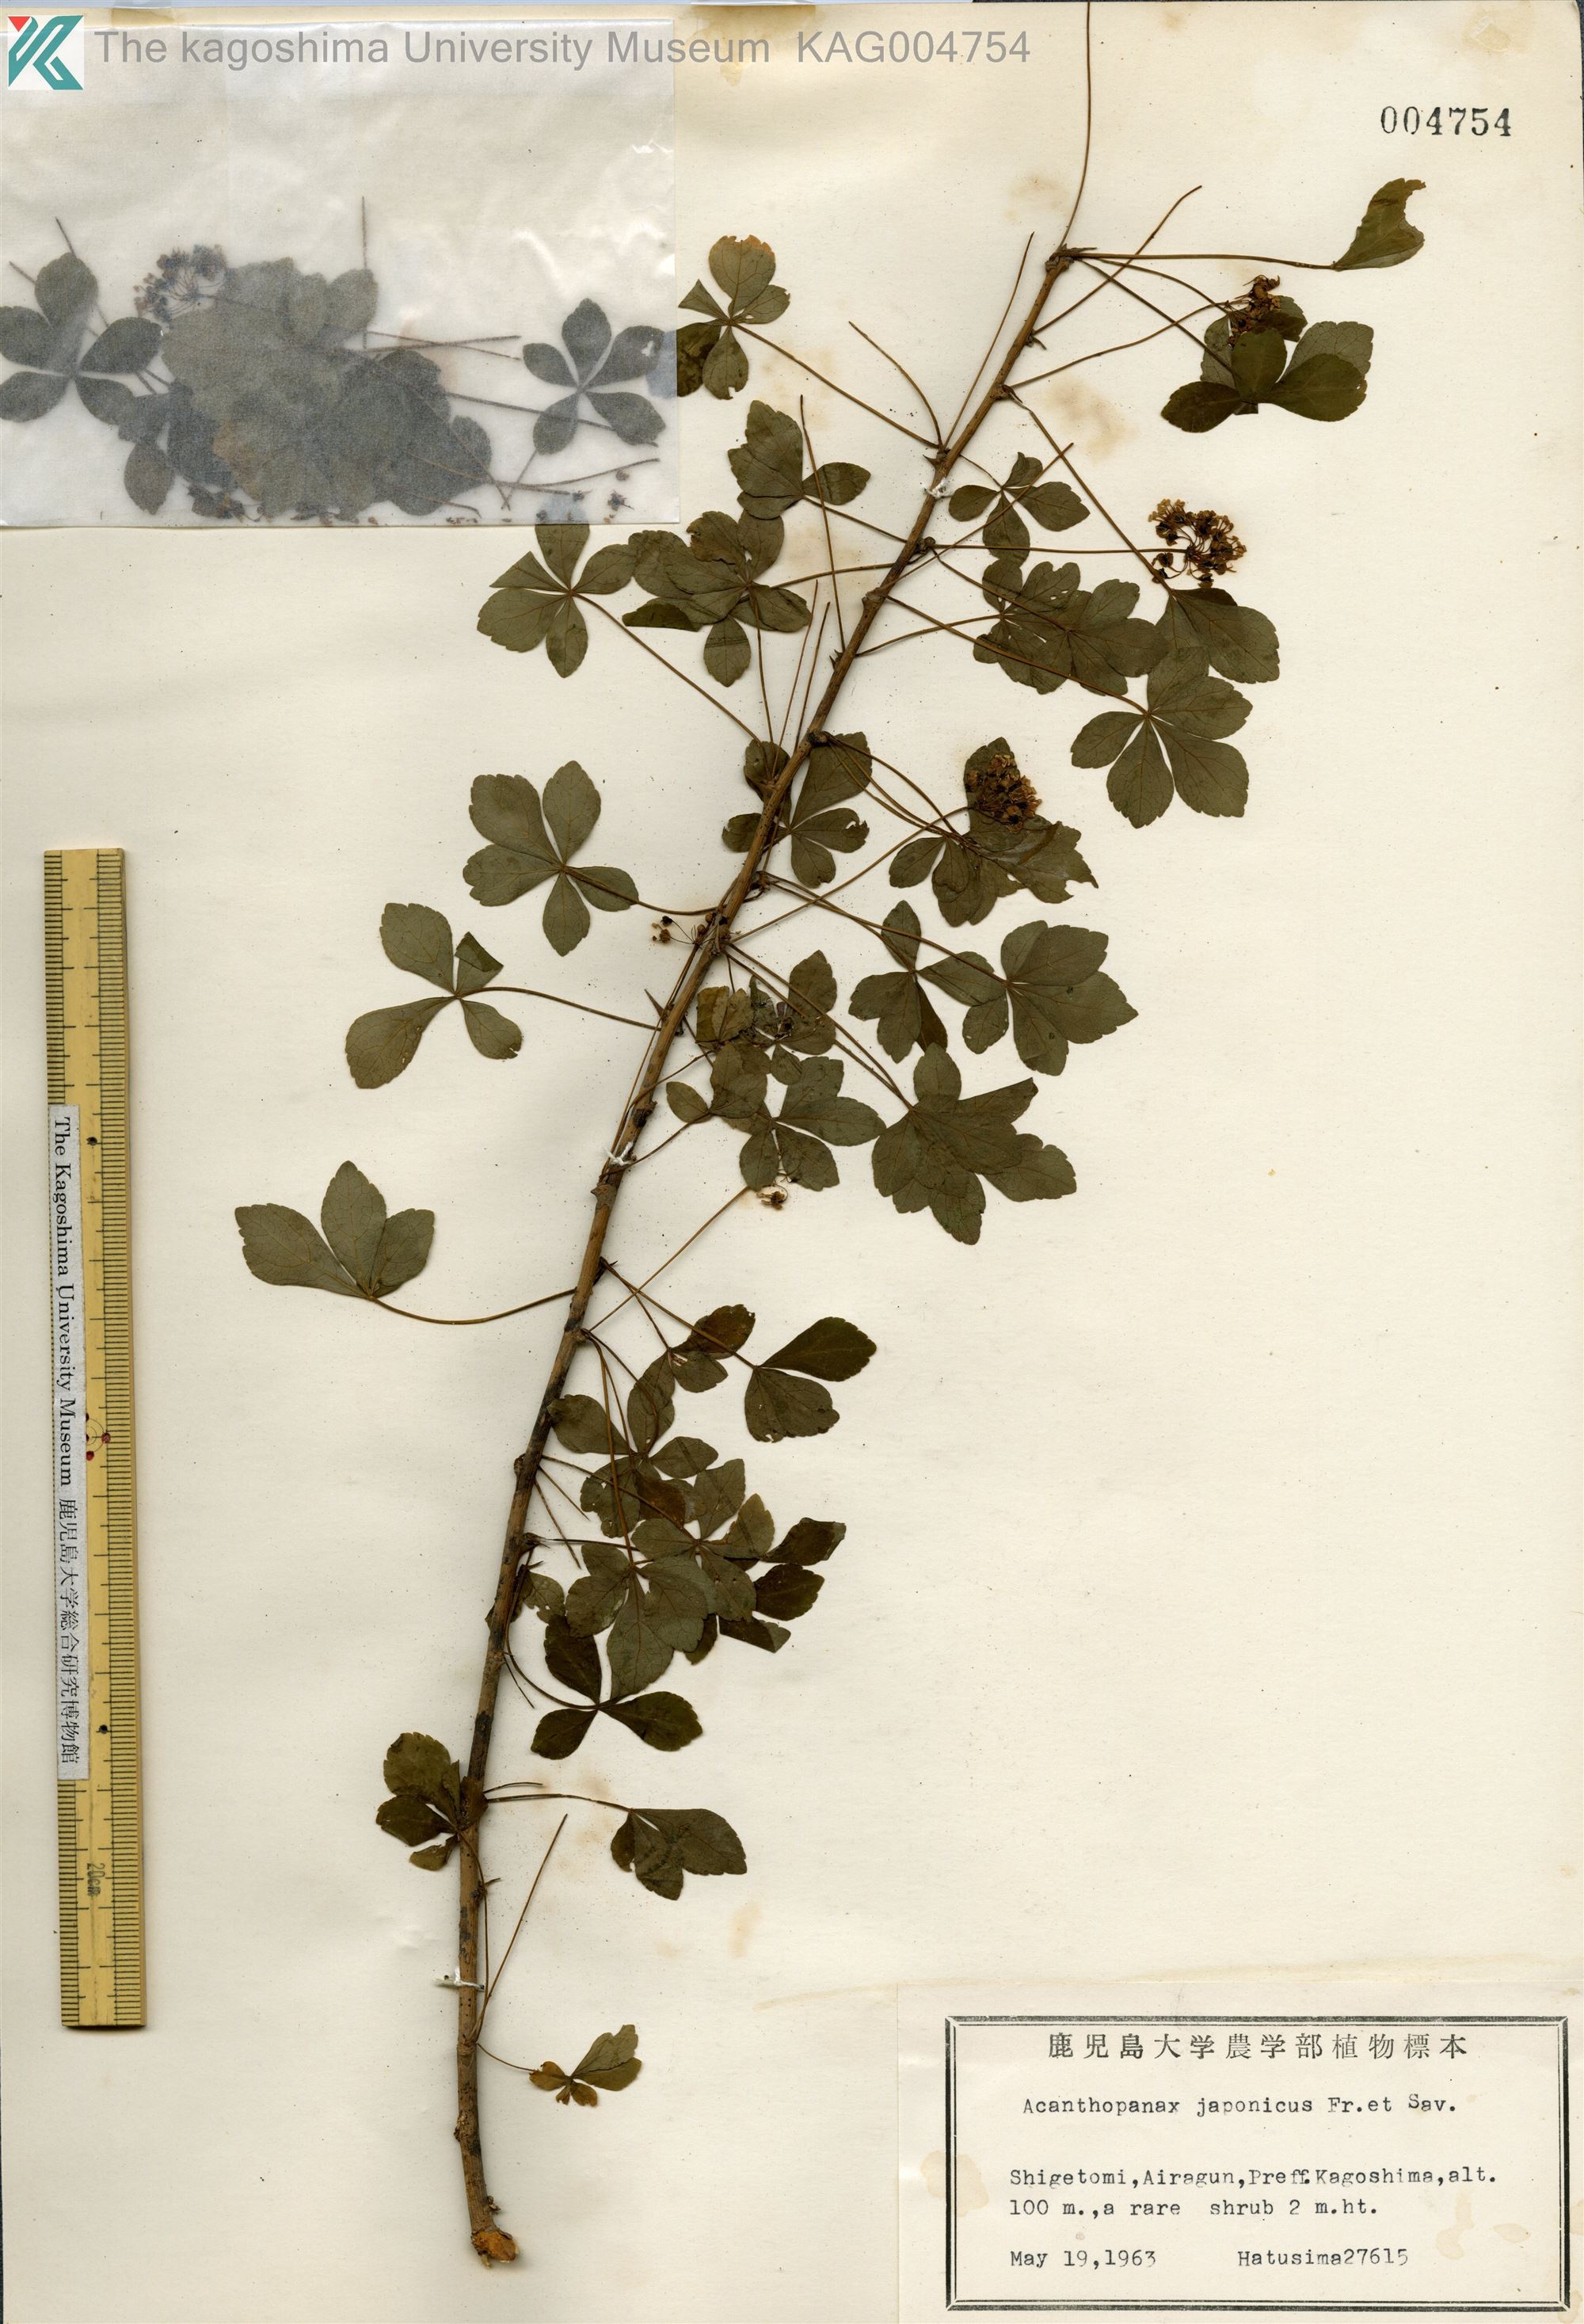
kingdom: Plantae
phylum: Tracheophyta
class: Magnoliopsida
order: Apiales
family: Araliaceae
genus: Eleutherococcus
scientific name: Eleutherococcus japonicus
